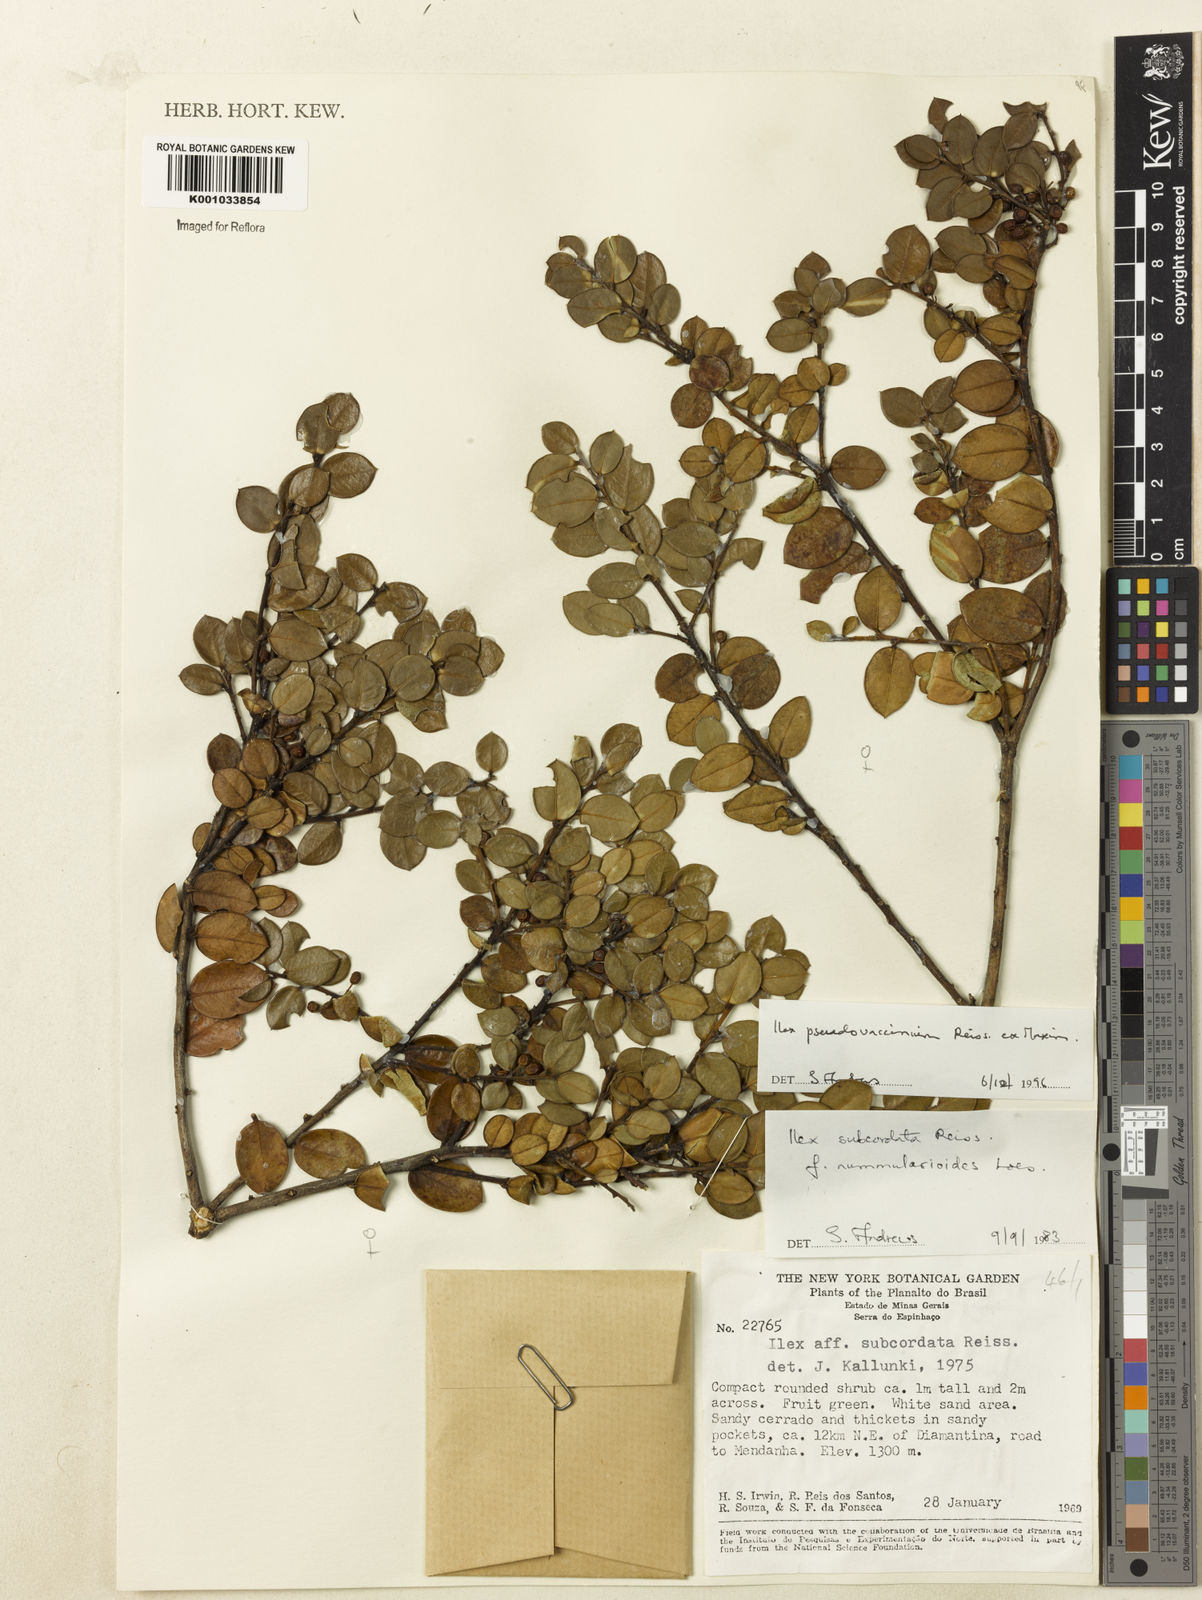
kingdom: Plantae
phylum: Tracheophyta
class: Magnoliopsida
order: Aquifoliales
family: Aquifoliaceae
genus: Ilex
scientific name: Ilex pseudovaccinium
